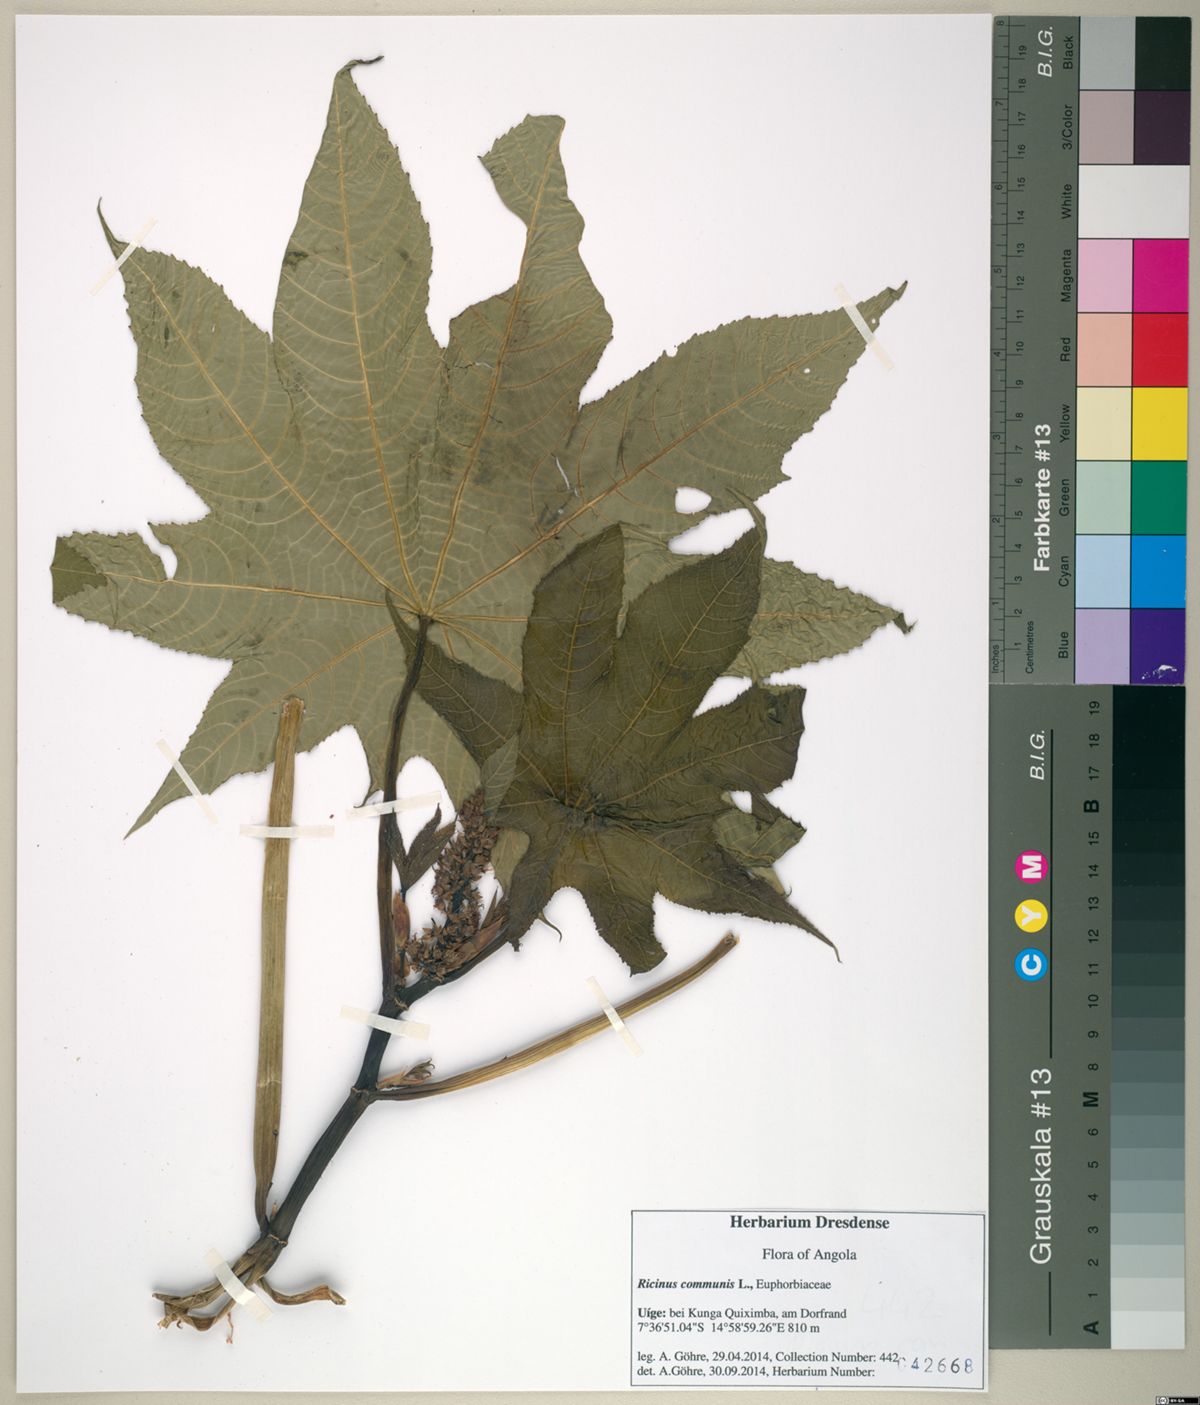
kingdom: Plantae
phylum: Tracheophyta
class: Magnoliopsida
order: Malpighiales
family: Euphorbiaceae
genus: Ricinus
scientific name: Ricinus communis
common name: Castor-oil-plant
